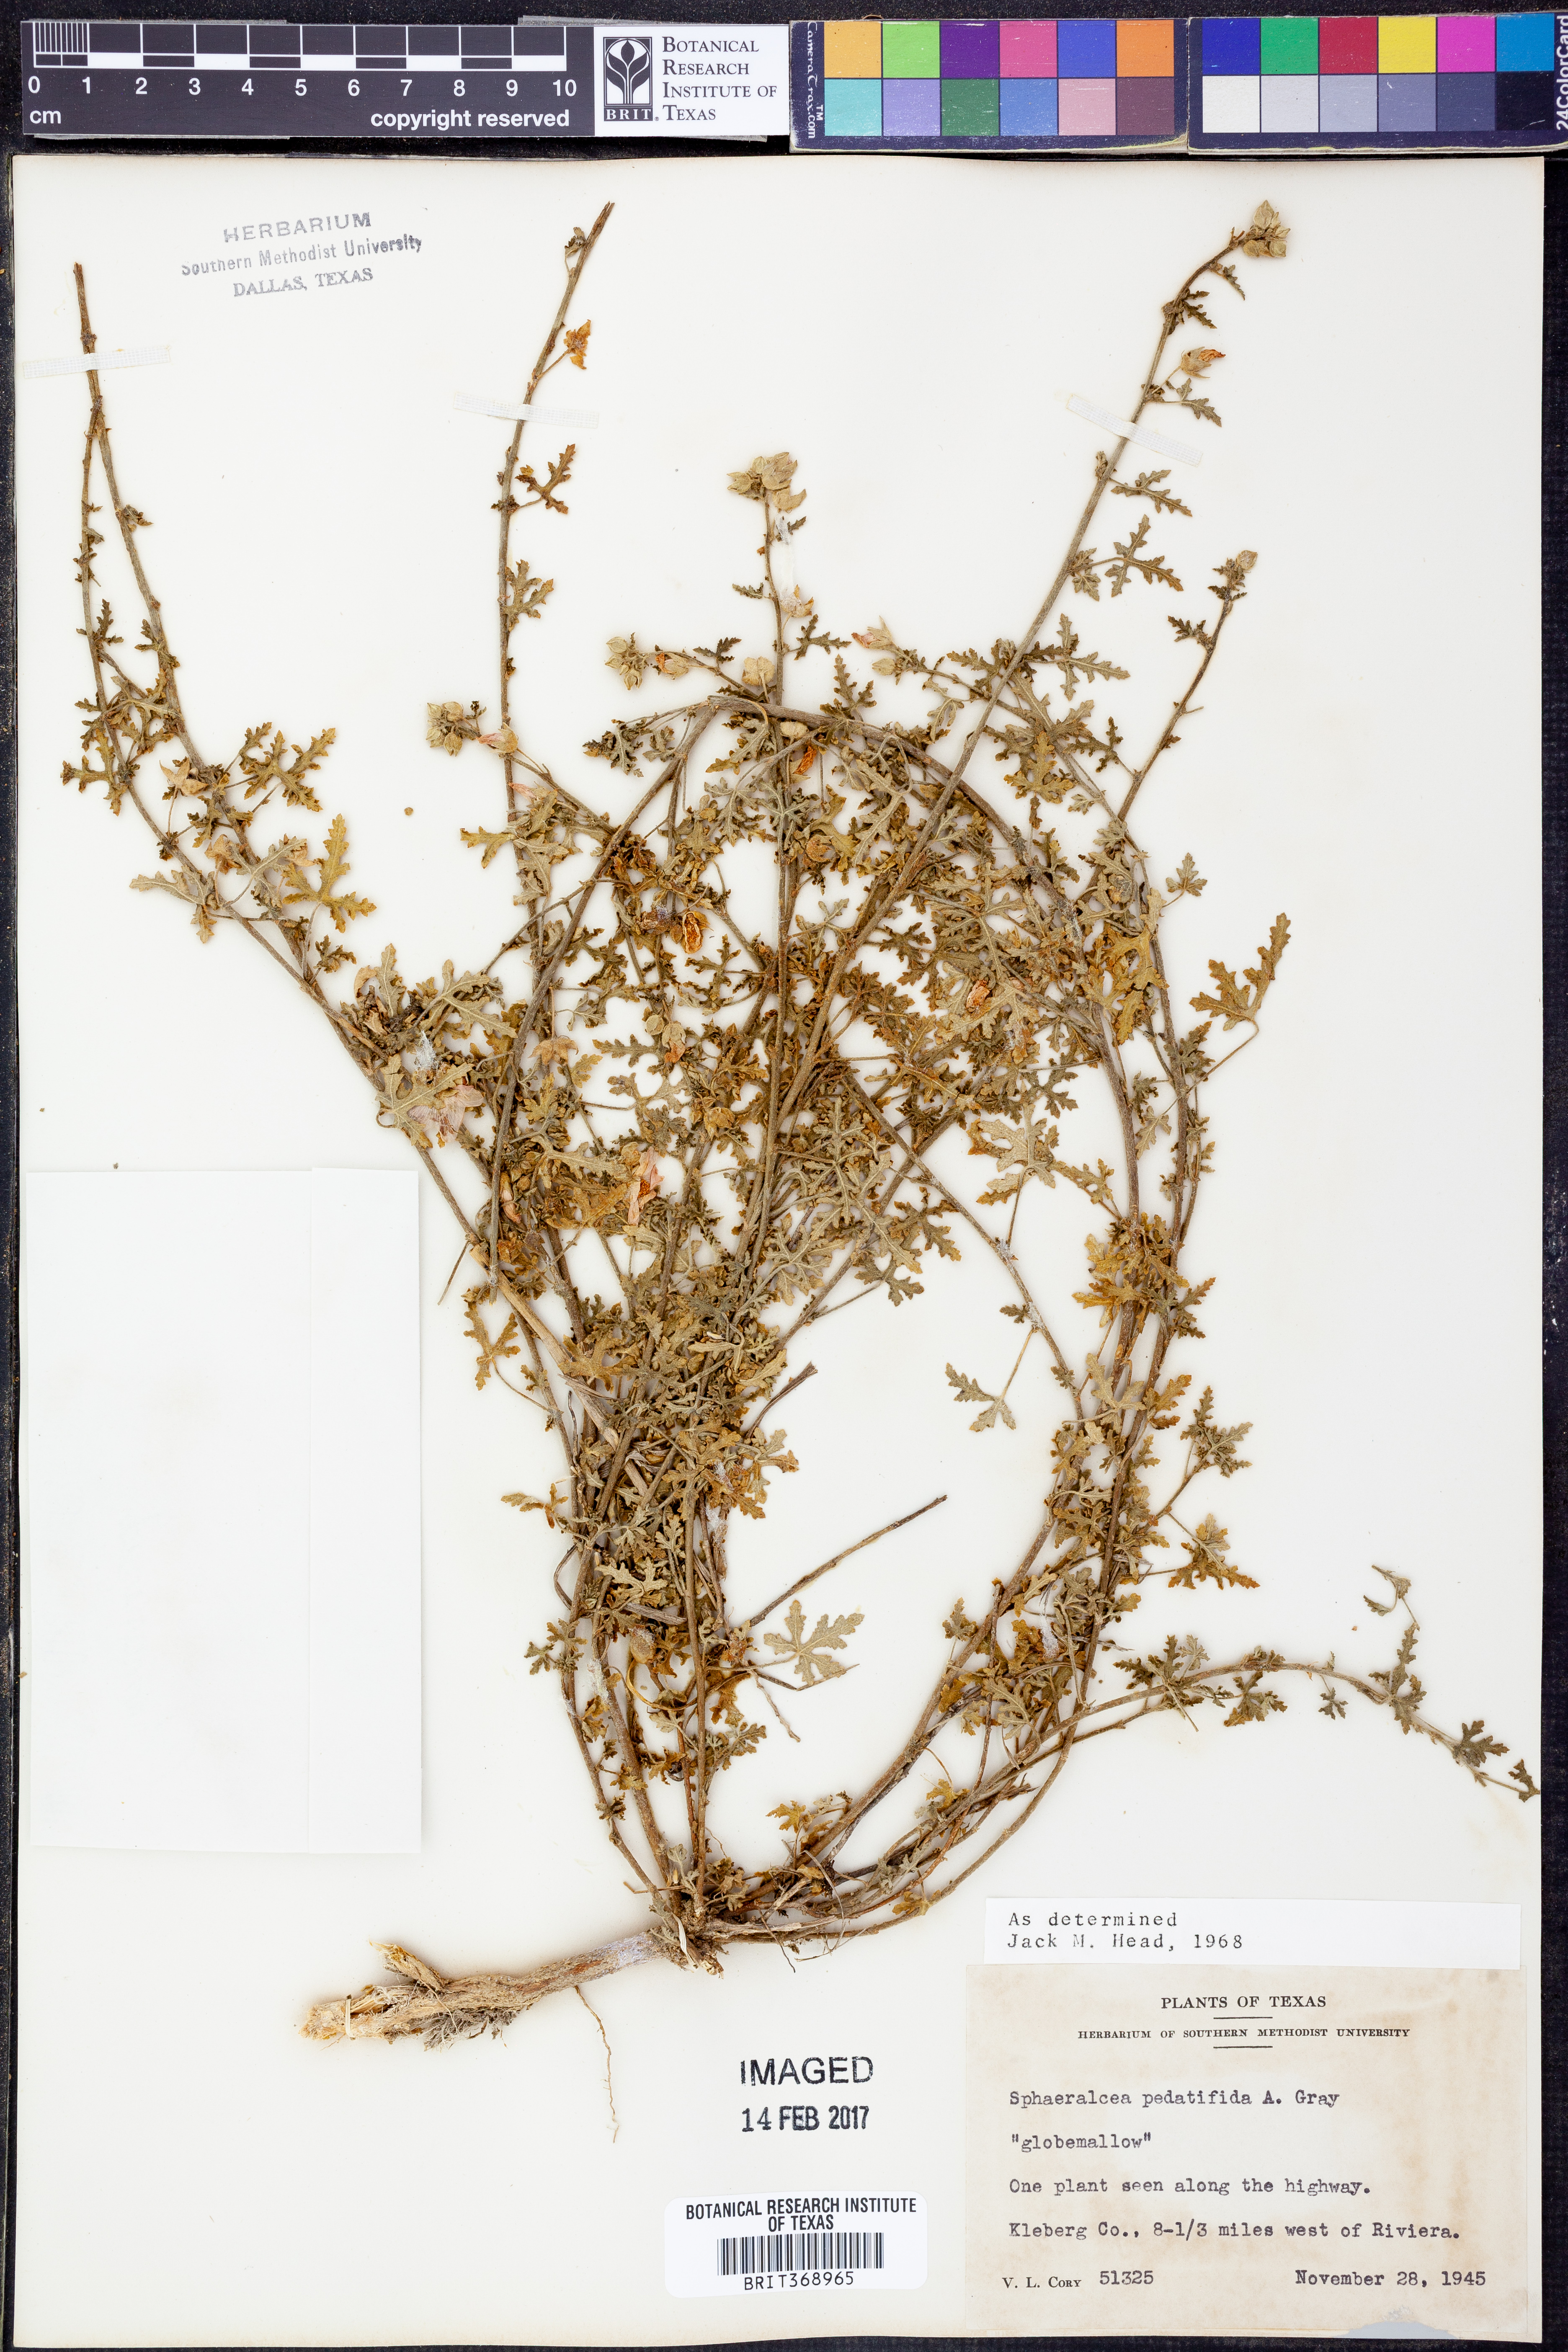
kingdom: Plantae
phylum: Tracheophyta
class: Magnoliopsida
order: Malvales
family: Malvaceae
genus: Sphaeralcea
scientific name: Sphaeralcea pedatifida
